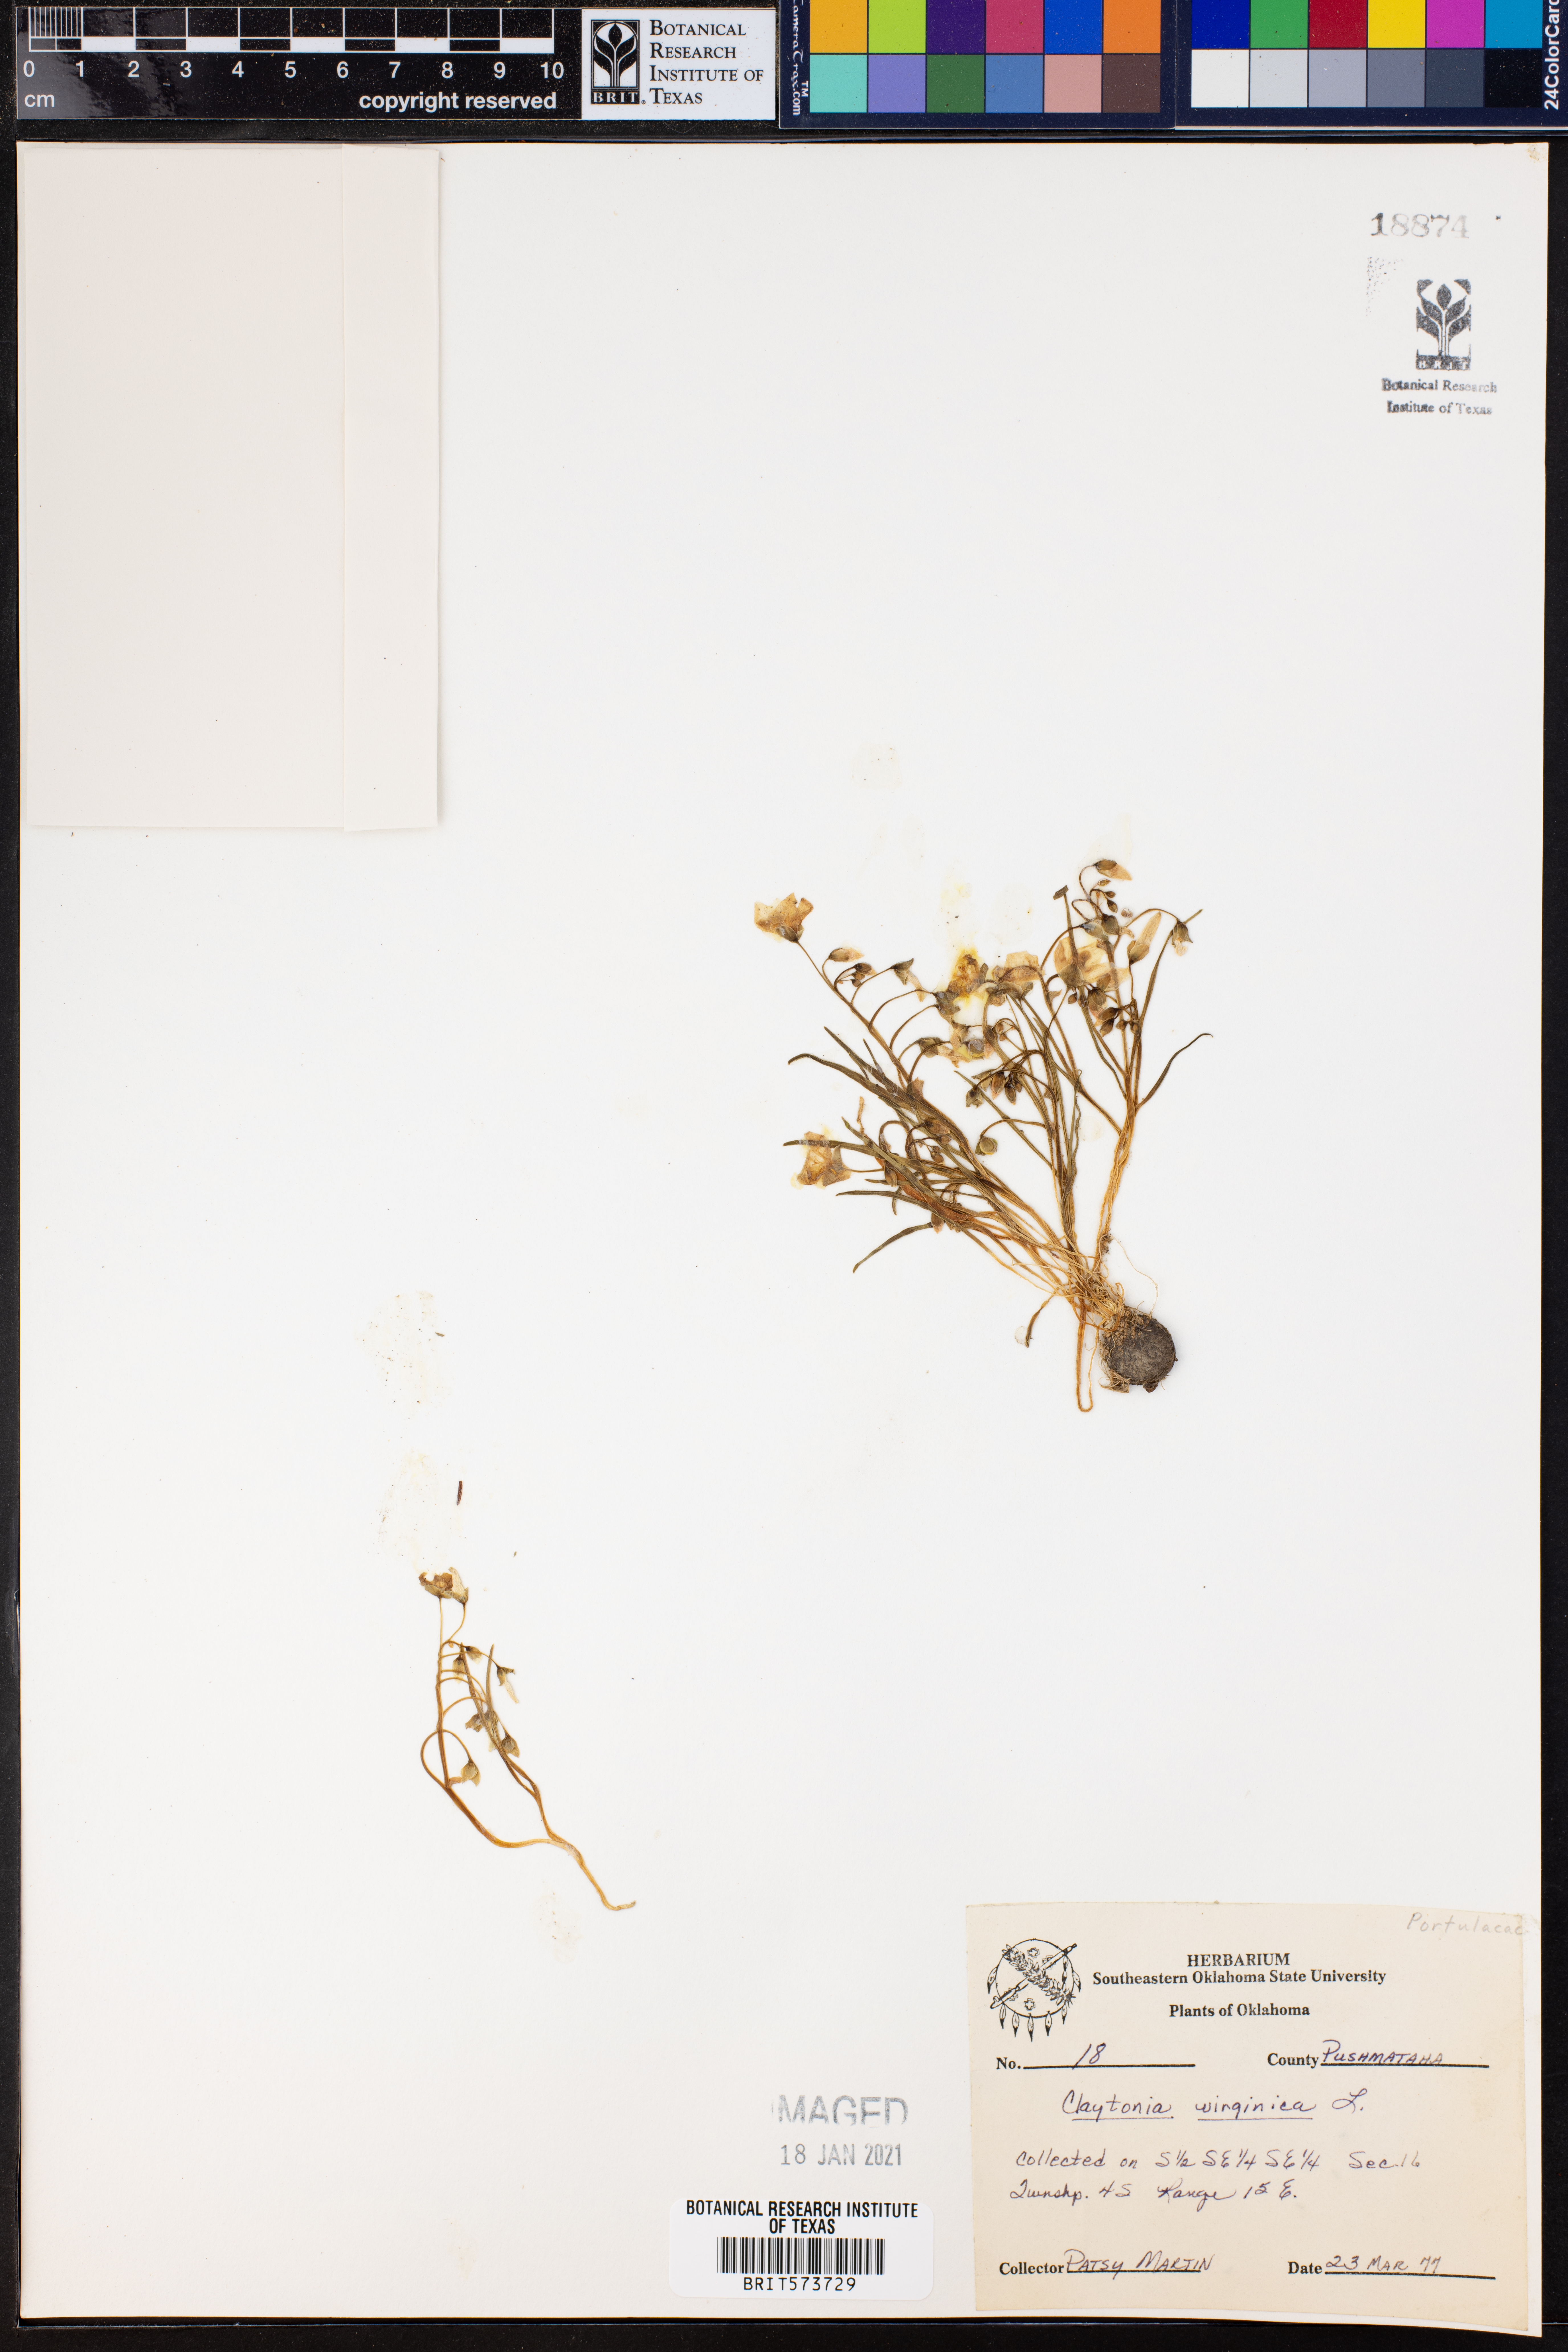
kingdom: Plantae
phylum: Tracheophyta
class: Magnoliopsida
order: Caryophyllales
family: Montiaceae
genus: Claytonia
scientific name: Claytonia virginica
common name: Virginia springbeauty
